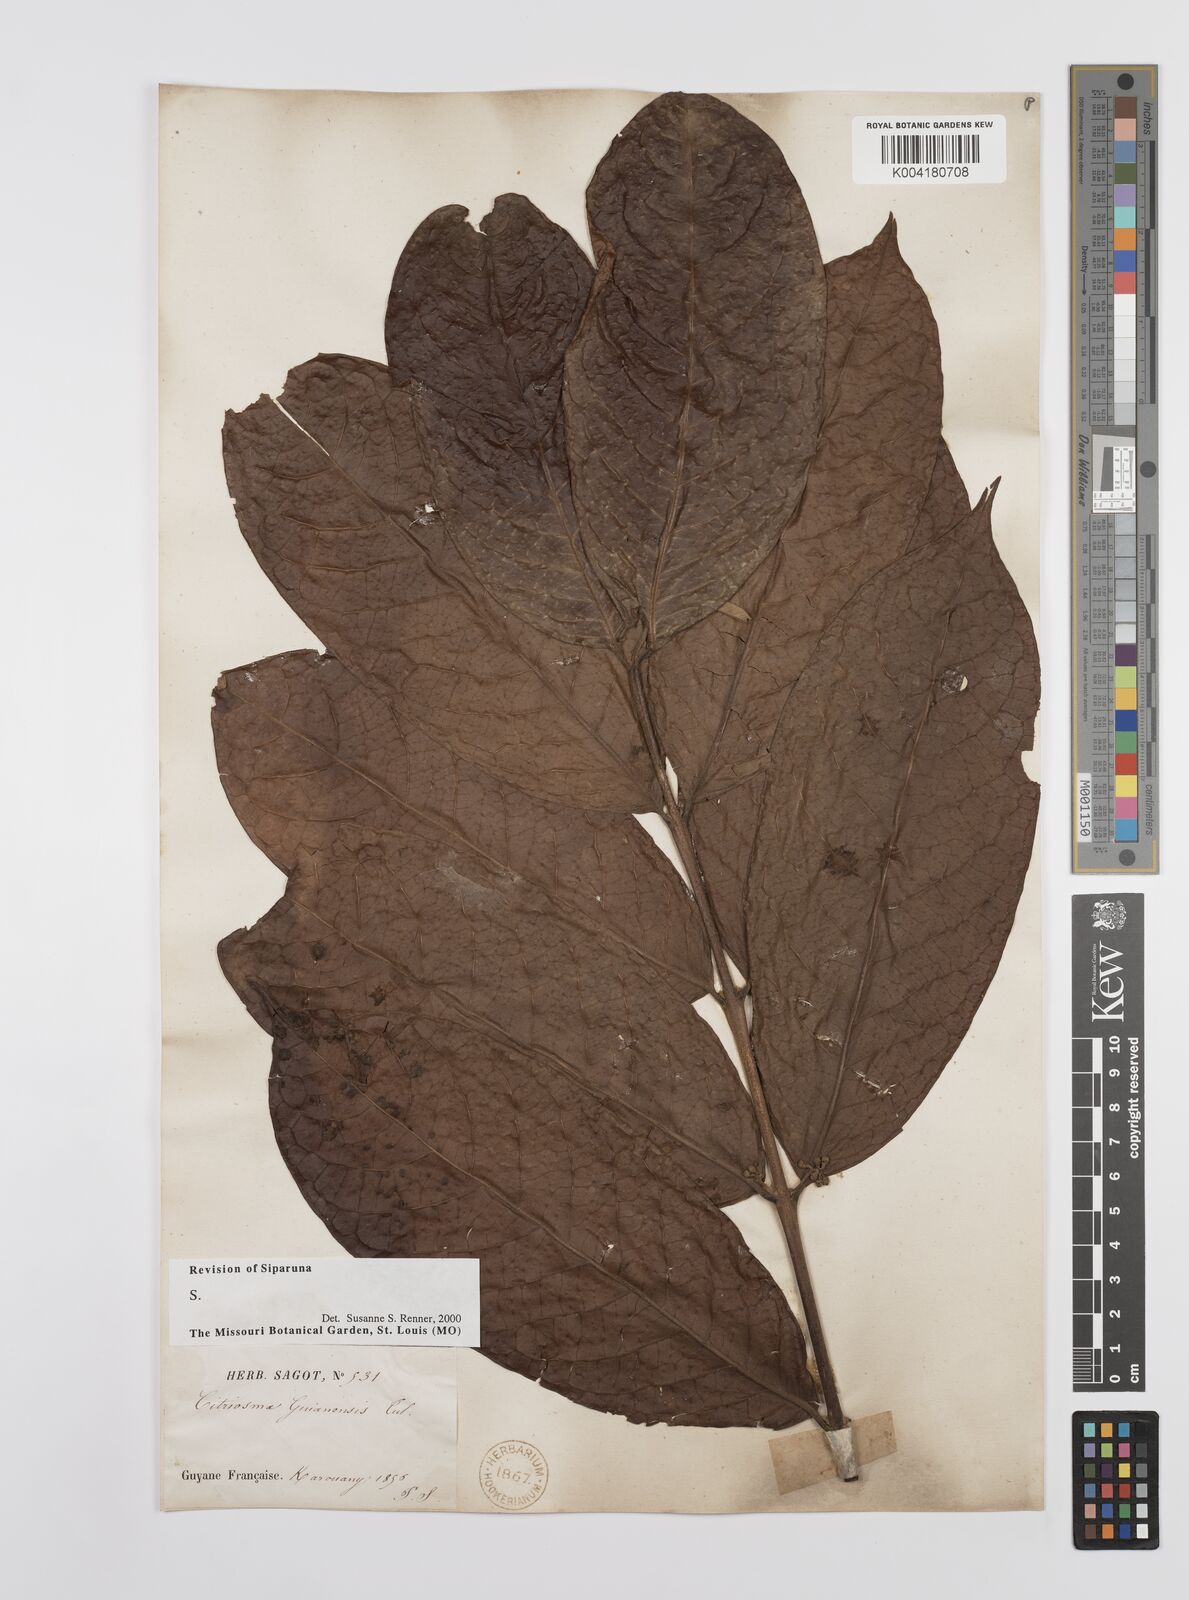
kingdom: Plantae
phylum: Tracheophyta
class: Magnoliopsida
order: Laurales
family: Siparunaceae
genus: Siparuna
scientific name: Siparuna guianensis
